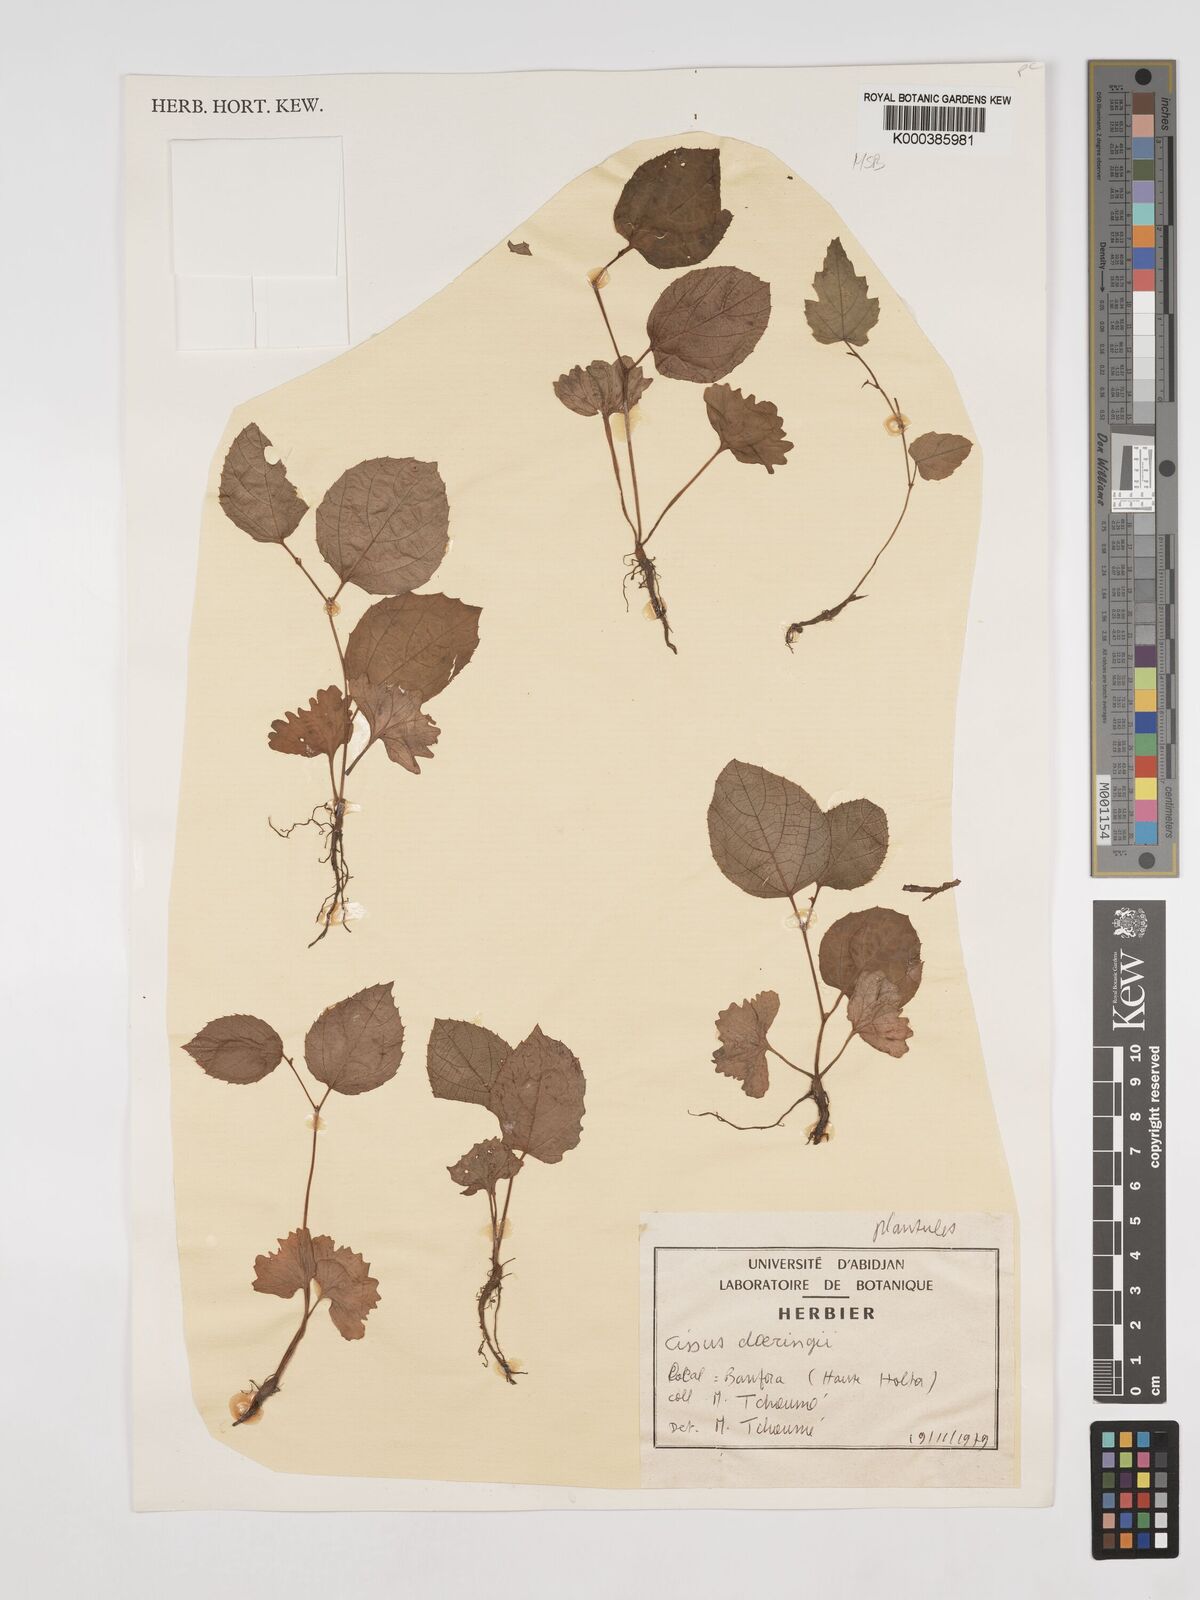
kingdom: Plantae
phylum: Tracheophyta
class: Magnoliopsida
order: Vitales
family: Vitaceae
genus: Cissus
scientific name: Cissus doeringii
